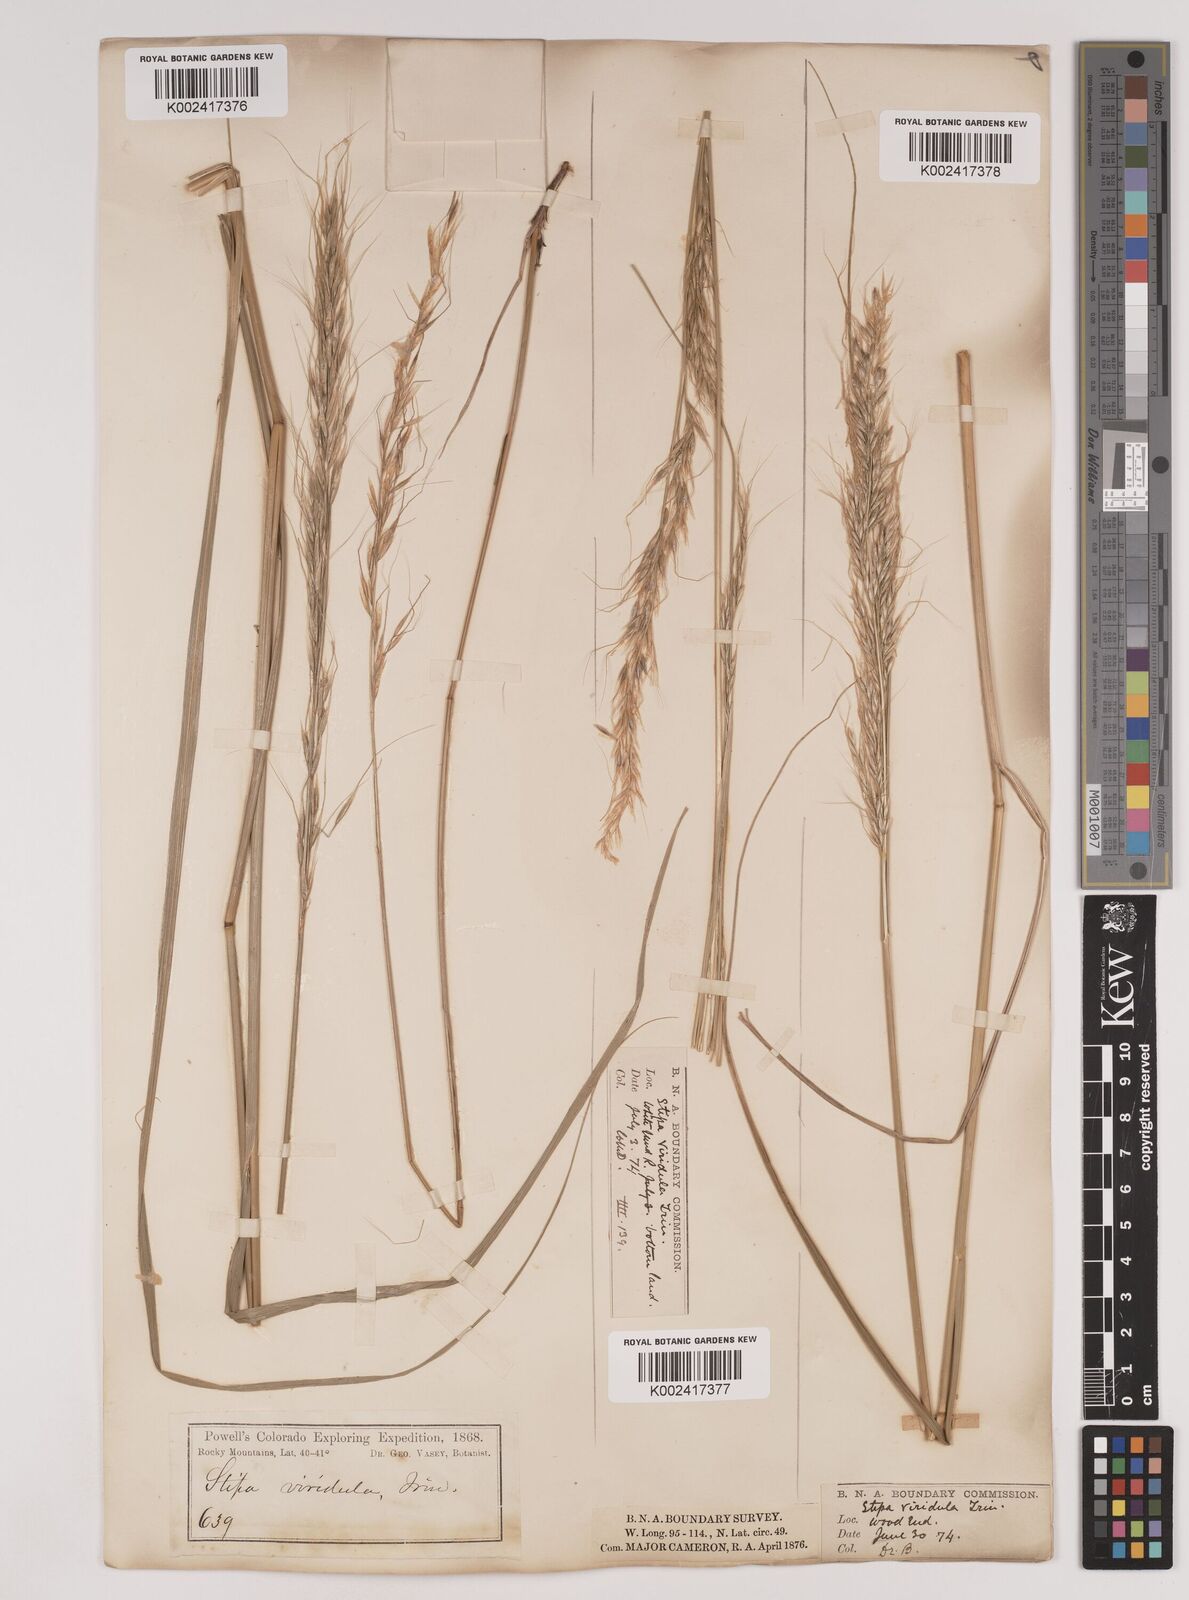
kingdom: Plantae
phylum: Tracheophyta
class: Liliopsida
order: Poales
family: Poaceae
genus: Nassella
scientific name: Nassella viridula
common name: Green needlegrass
